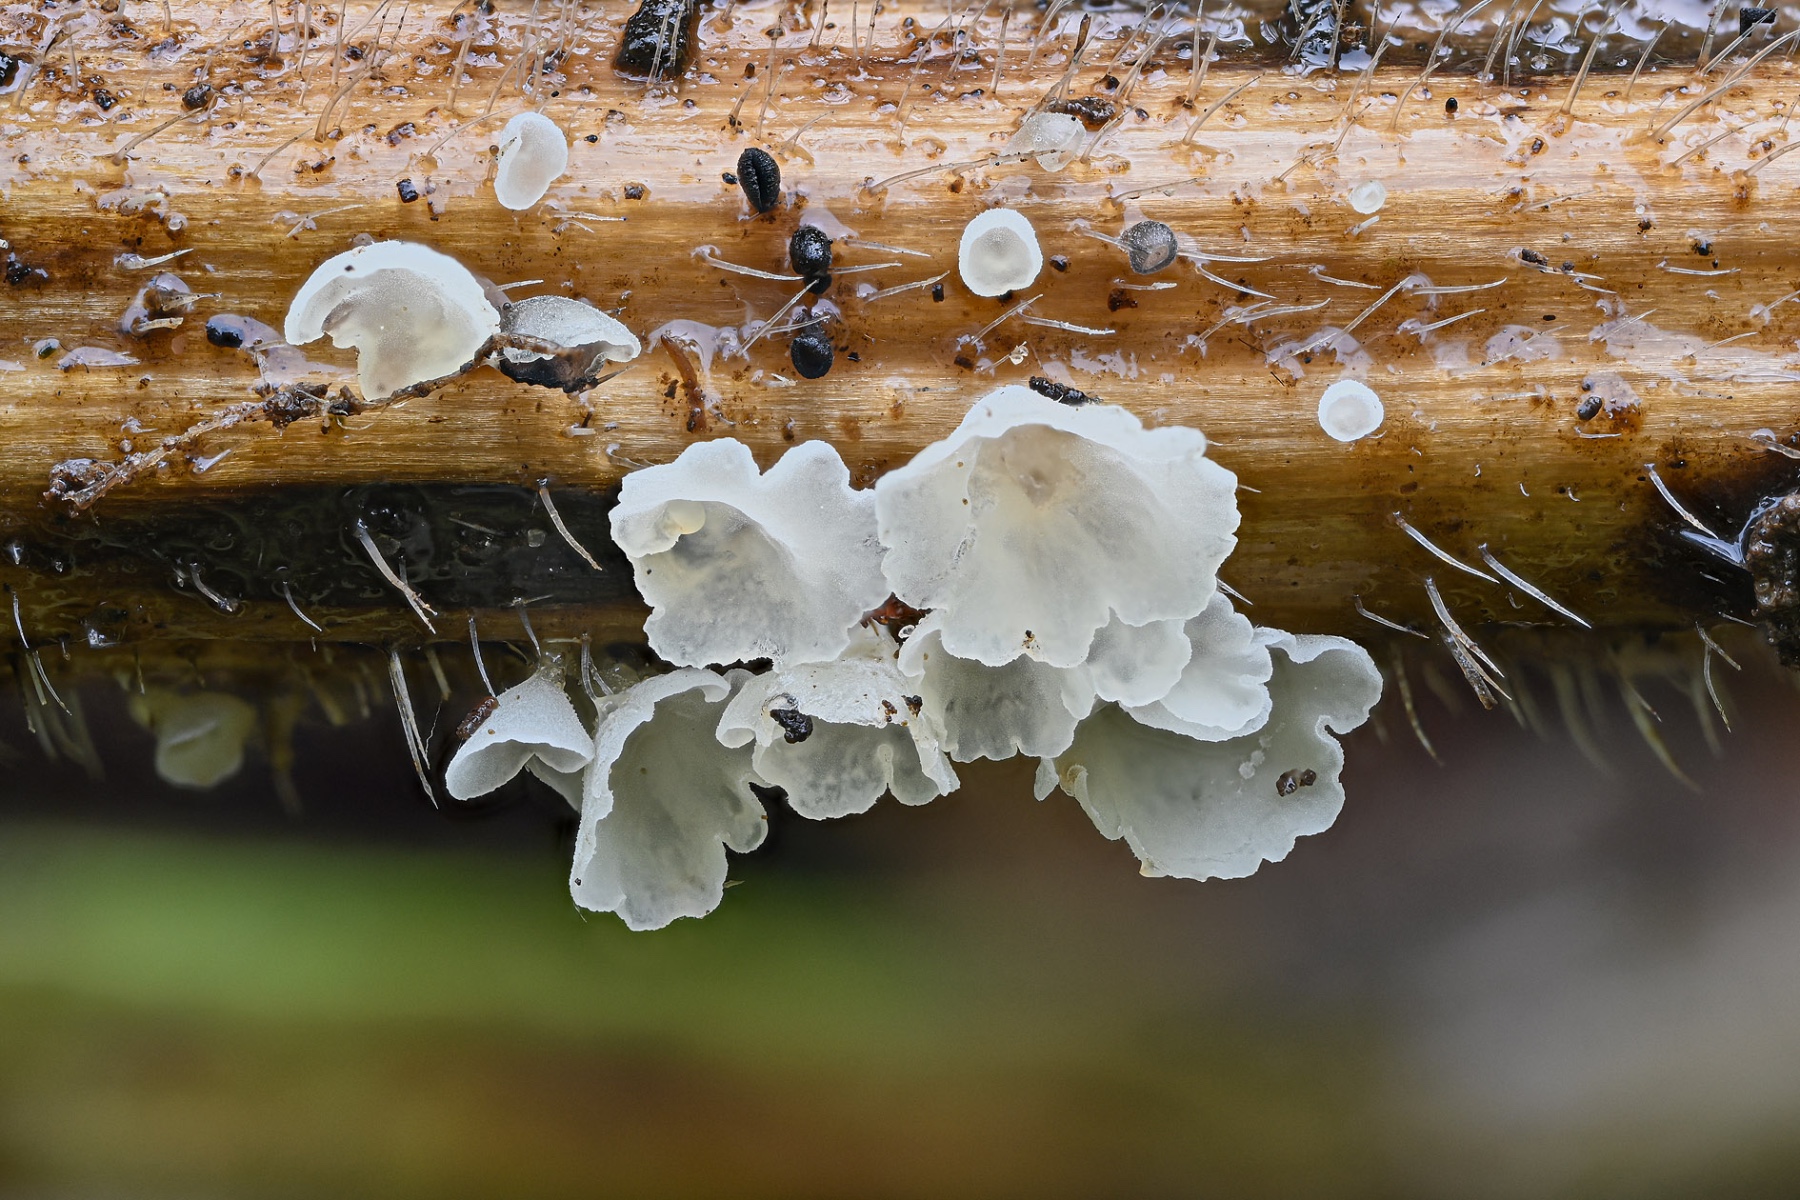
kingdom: Fungi
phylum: Basidiomycota
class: Agaricomycetes
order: Agaricales
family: Marasmiaceae
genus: Calyptella
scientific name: Calyptella capula
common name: hvidlig nældehue
